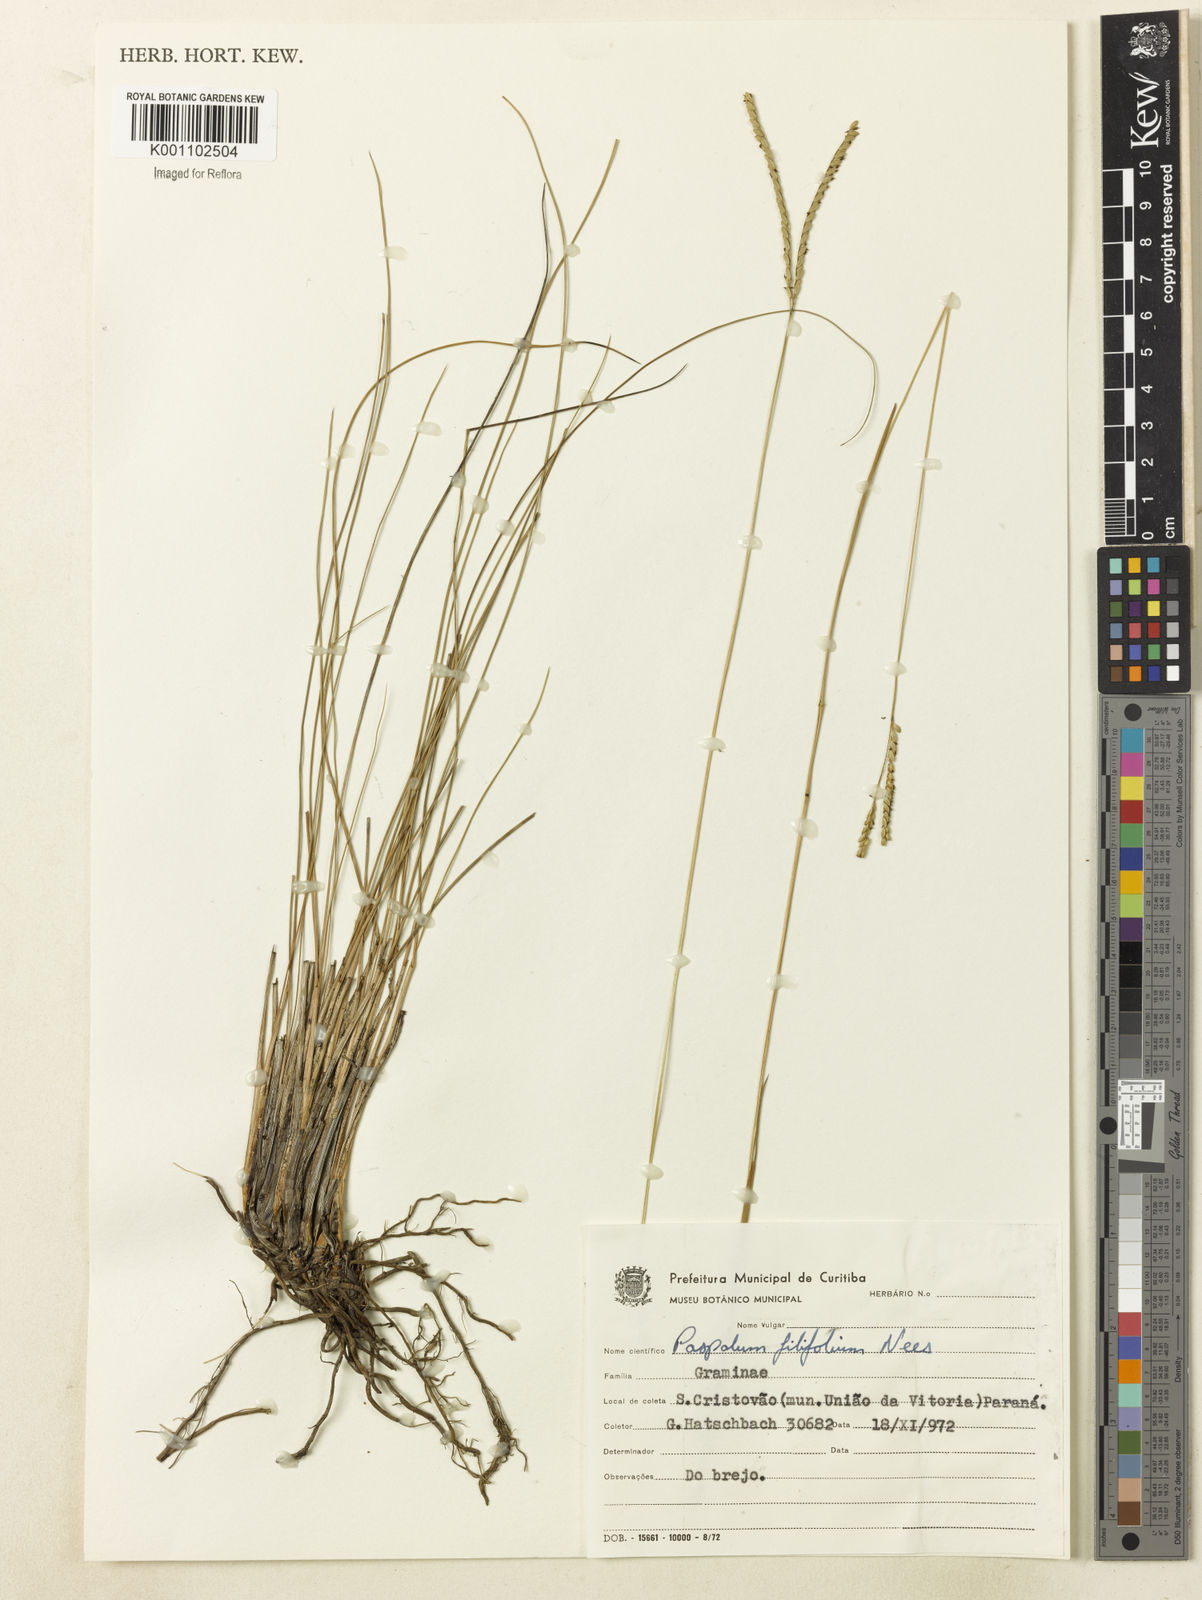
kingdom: Plantae
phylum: Tracheophyta
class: Liliopsida
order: Poales
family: Poaceae
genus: Paspalum
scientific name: Paspalum filifolium
